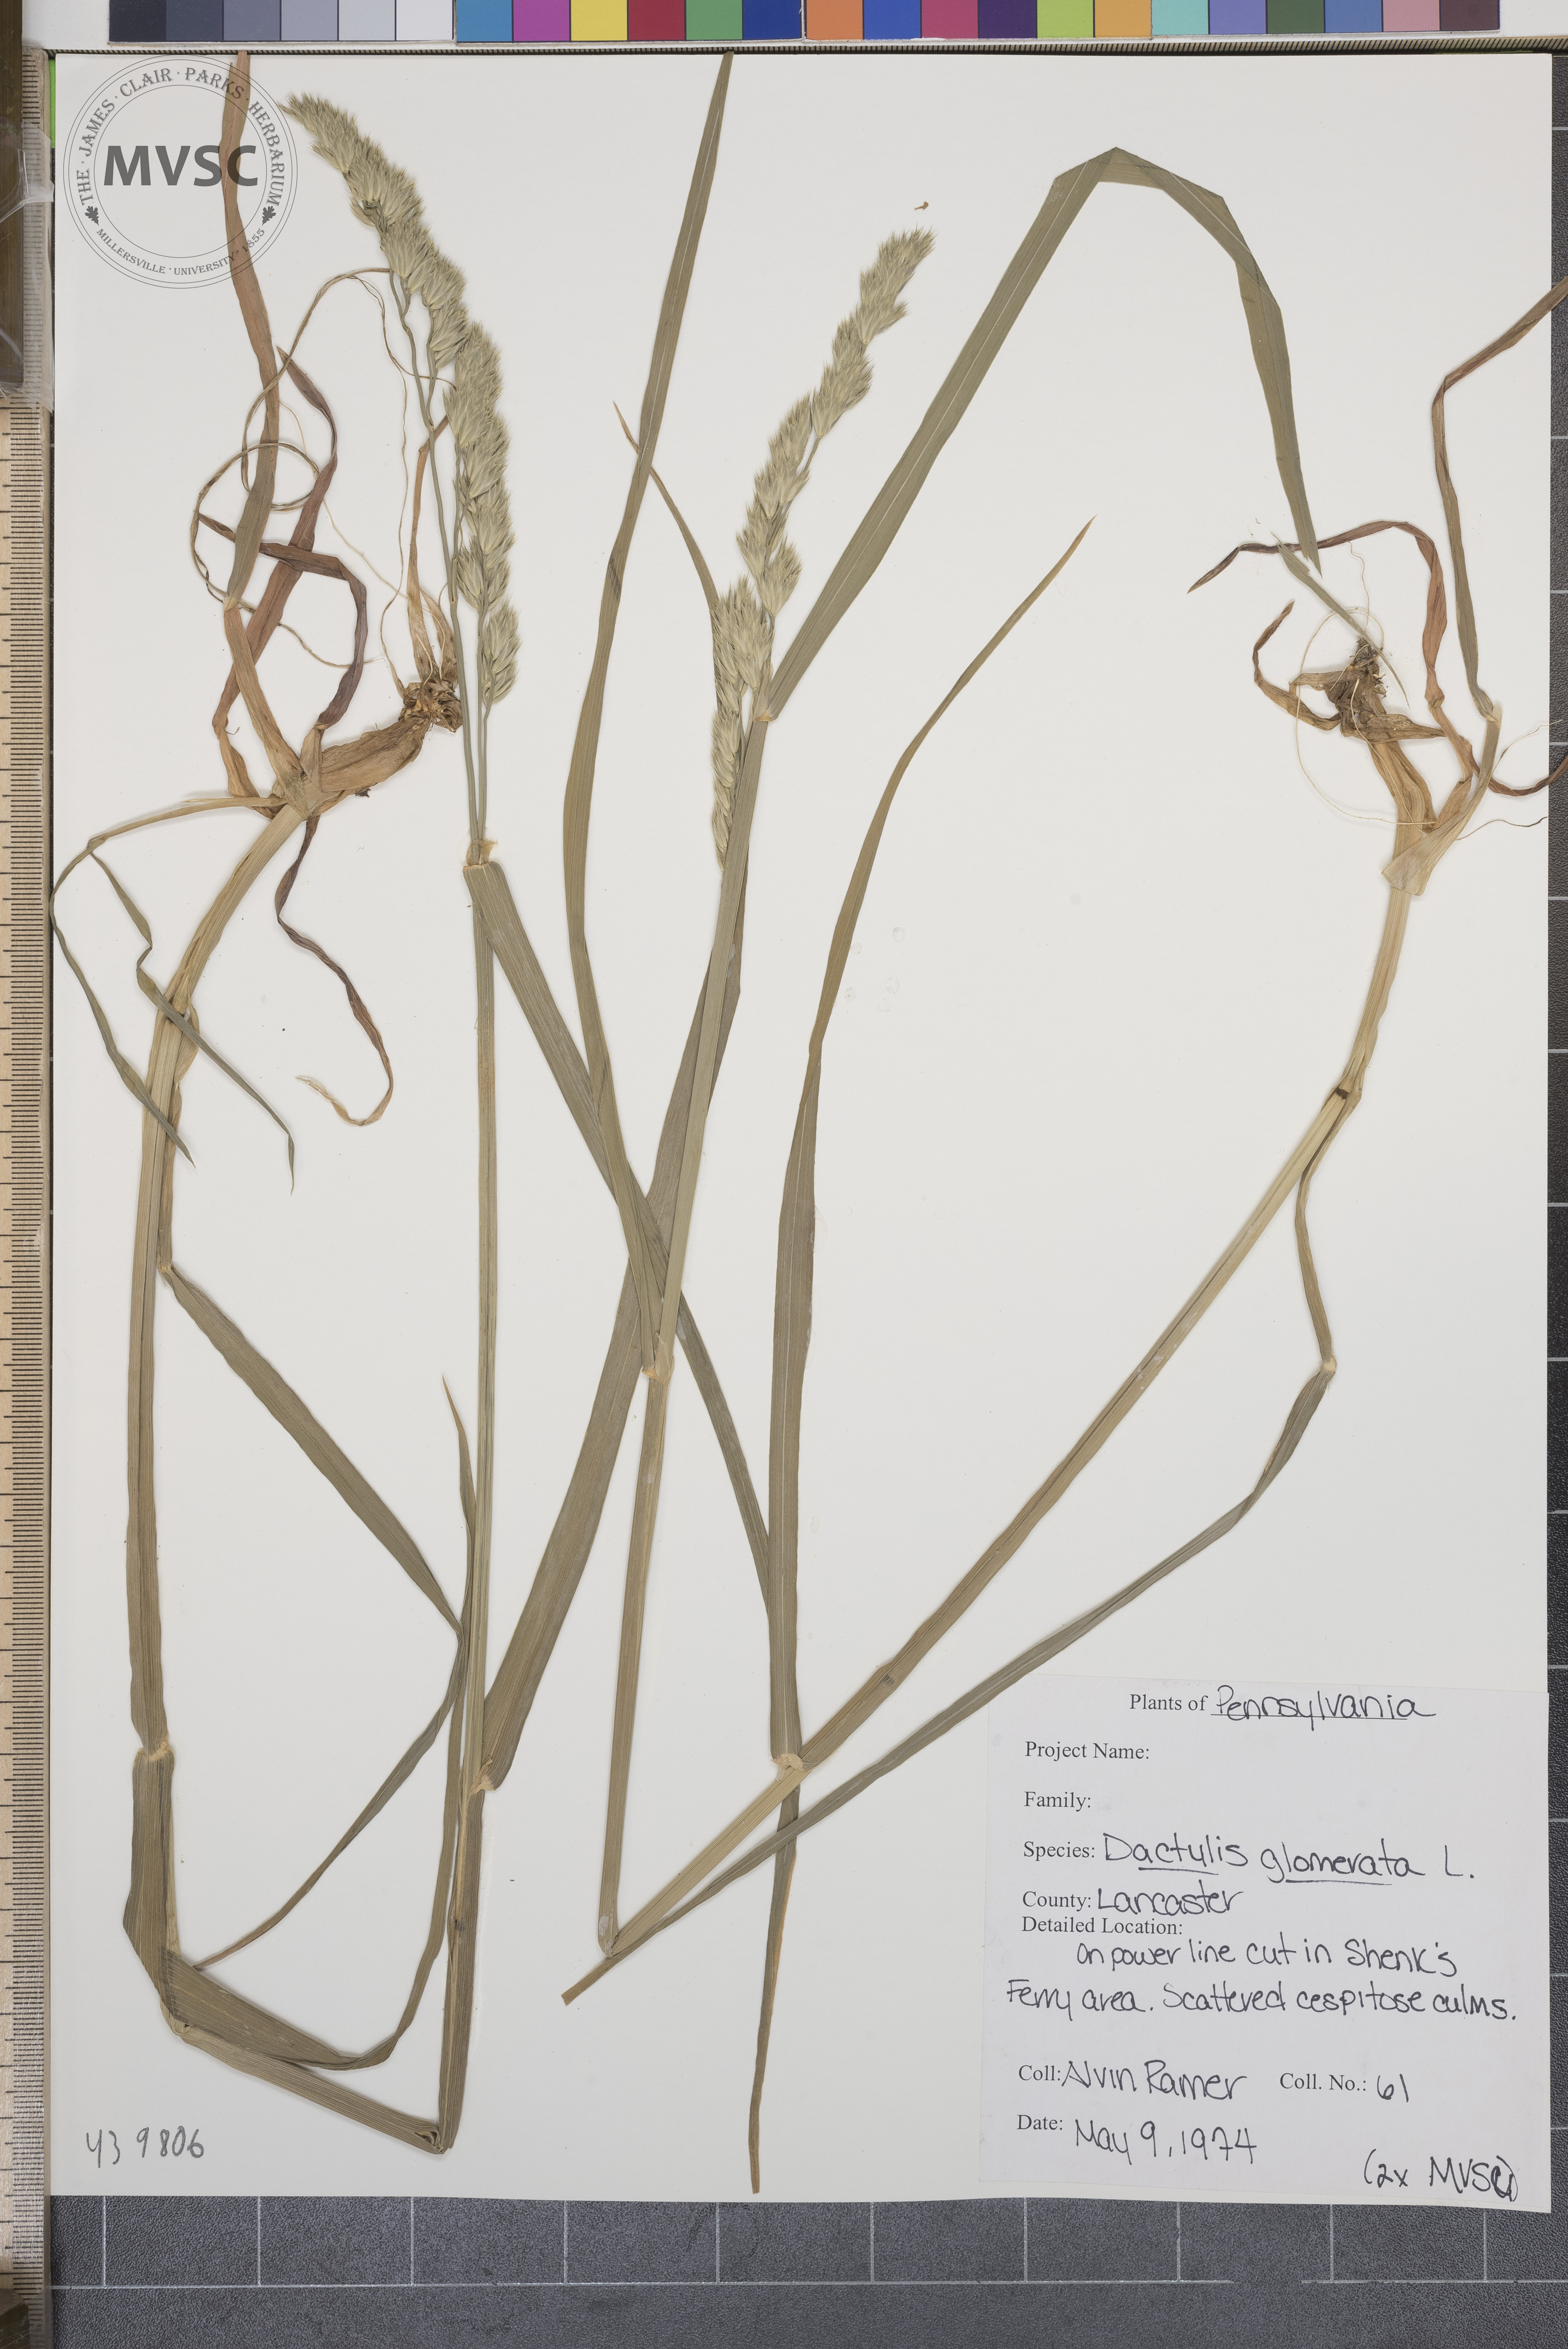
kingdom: Plantae
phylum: Tracheophyta
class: Liliopsida
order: Poales
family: Poaceae
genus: Dactylis
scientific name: Dactylis glomerata
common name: Orchardgrass
